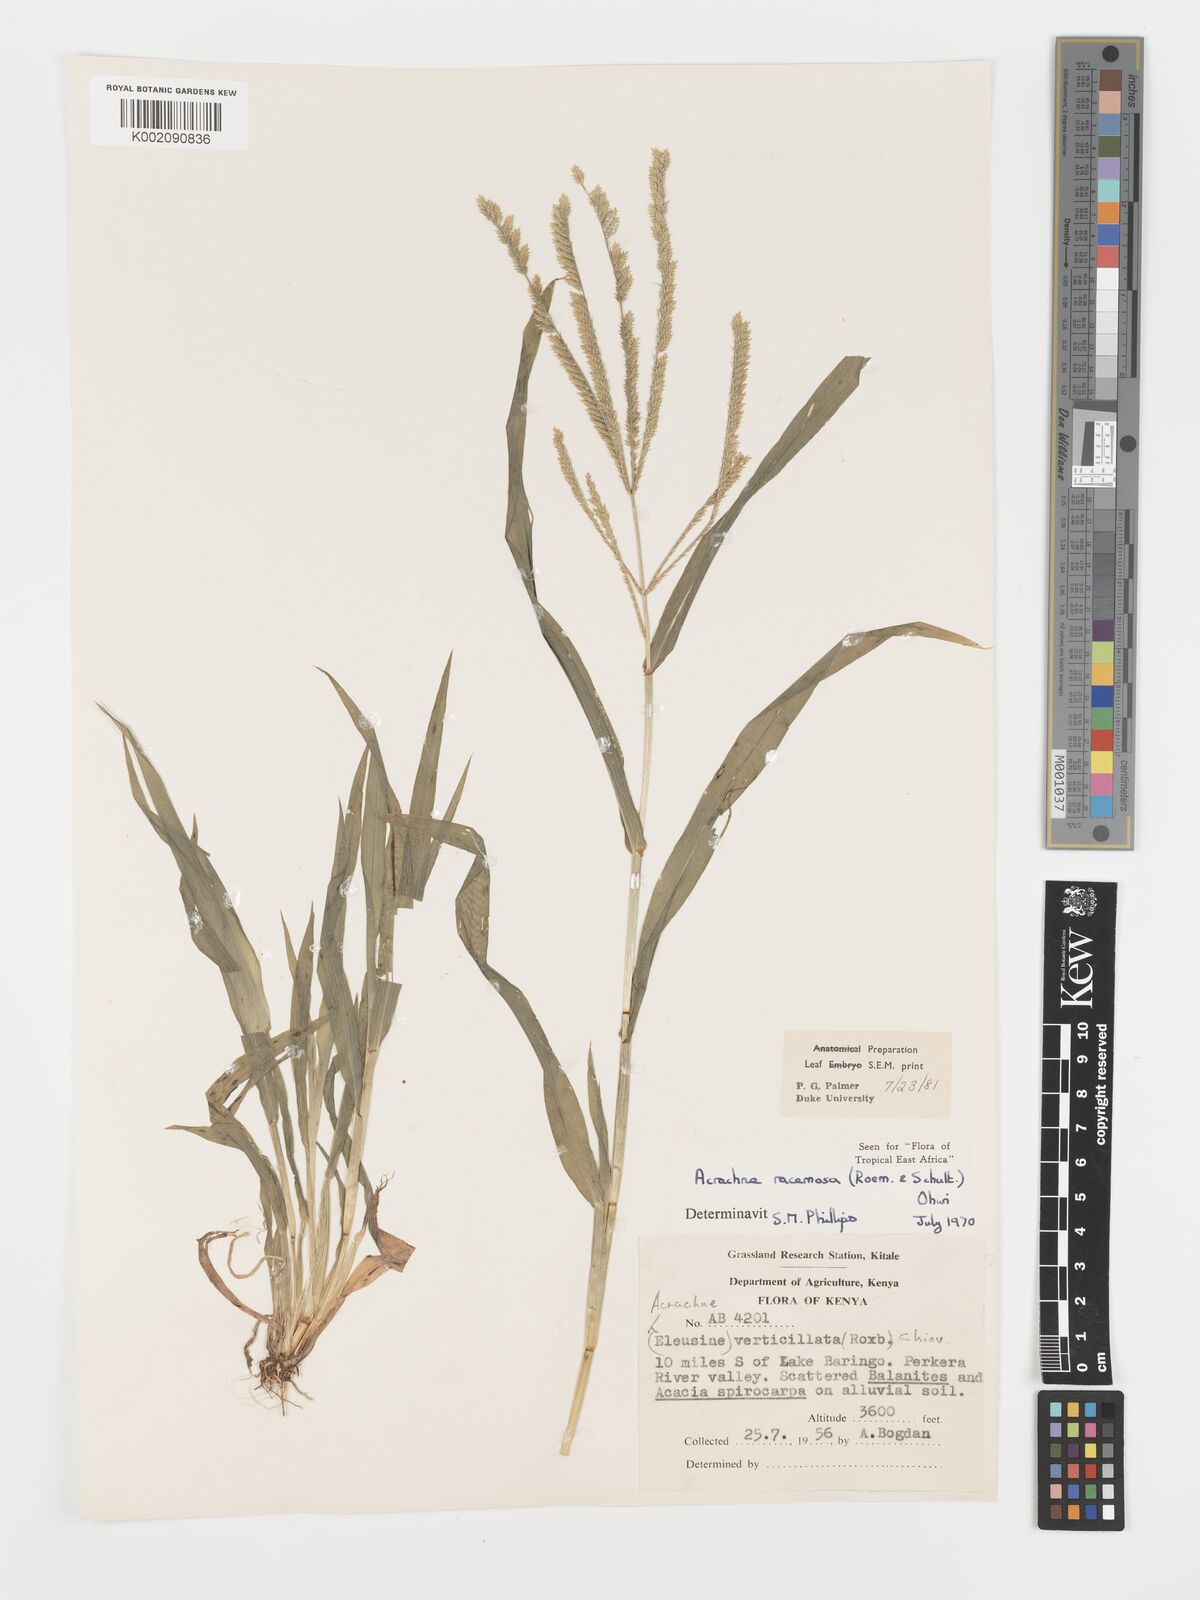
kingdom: Plantae
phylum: Tracheophyta
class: Liliopsida
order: Poales
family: Poaceae
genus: Acrachne
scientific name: Acrachne racemosa
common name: Goosegrass
